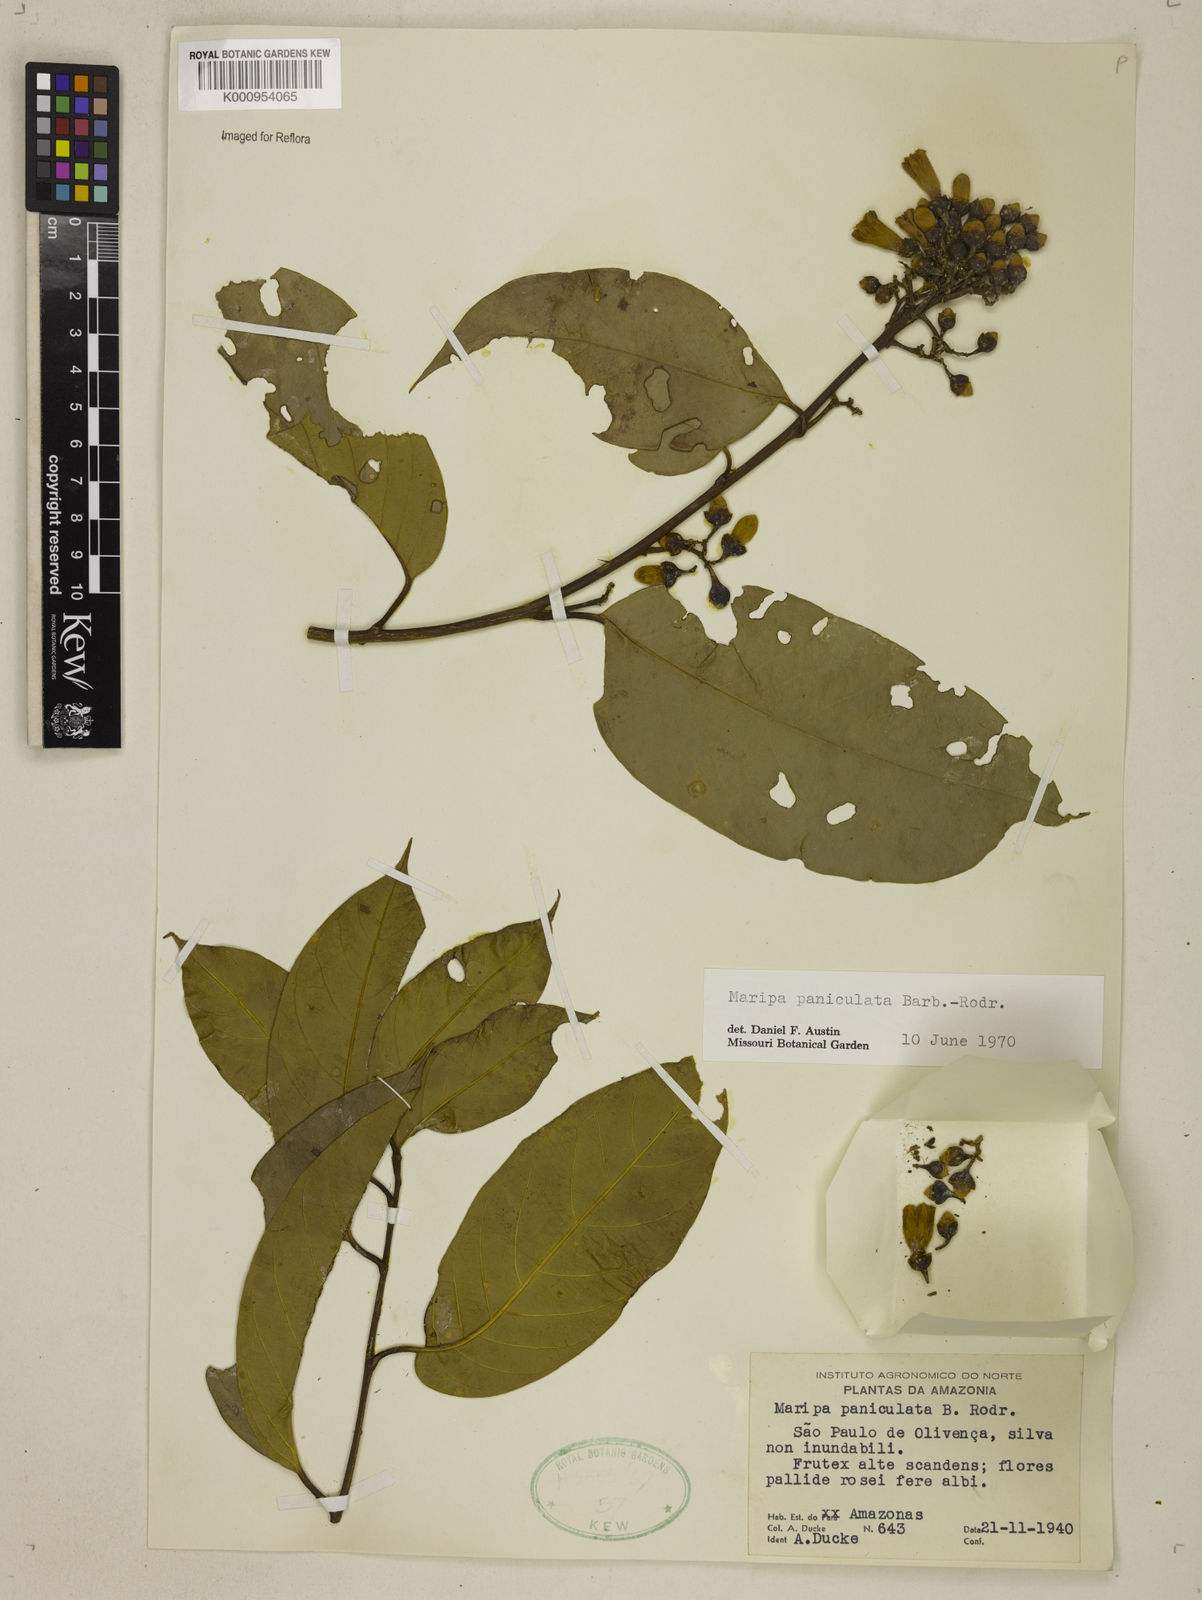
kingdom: Plantae
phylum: Tracheophyta
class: Magnoliopsida
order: Solanales
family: Convolvulaceae
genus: Maripa
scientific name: Maripa paniculata
